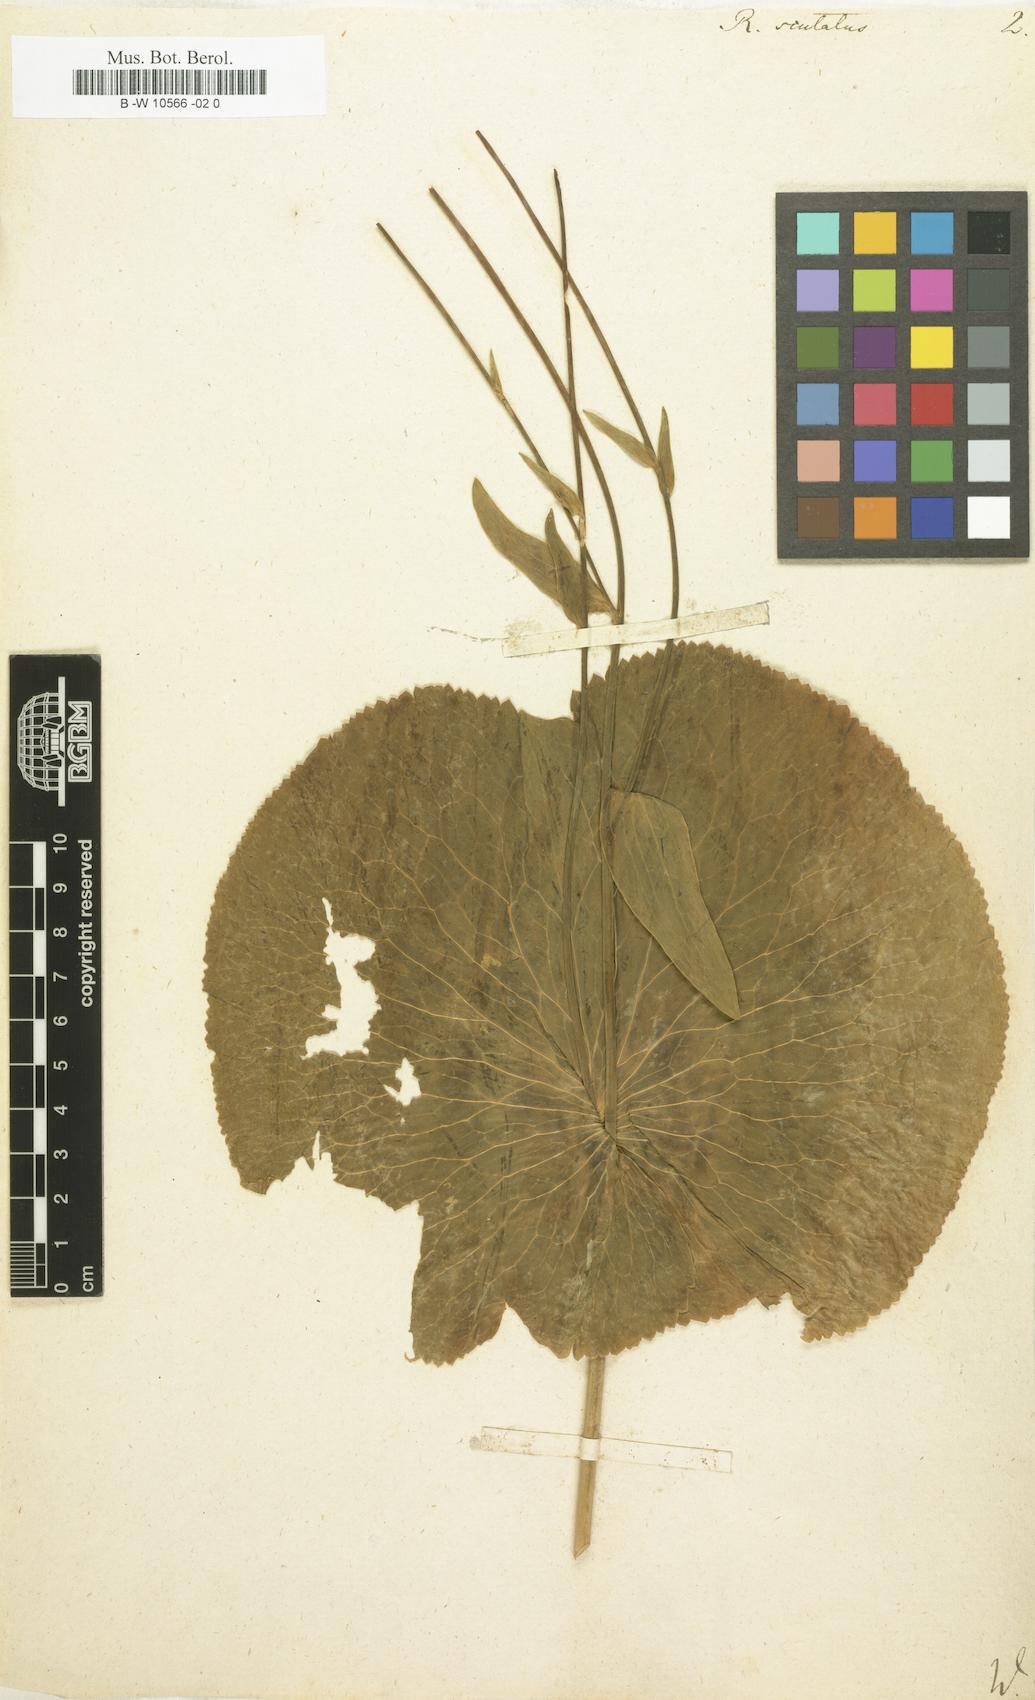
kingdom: Plantae
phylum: Tracheophyta
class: Magnoliopsida
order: Ranunculales
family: Ranunculaceae
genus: Ranunculus
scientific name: Ranunculus thora
